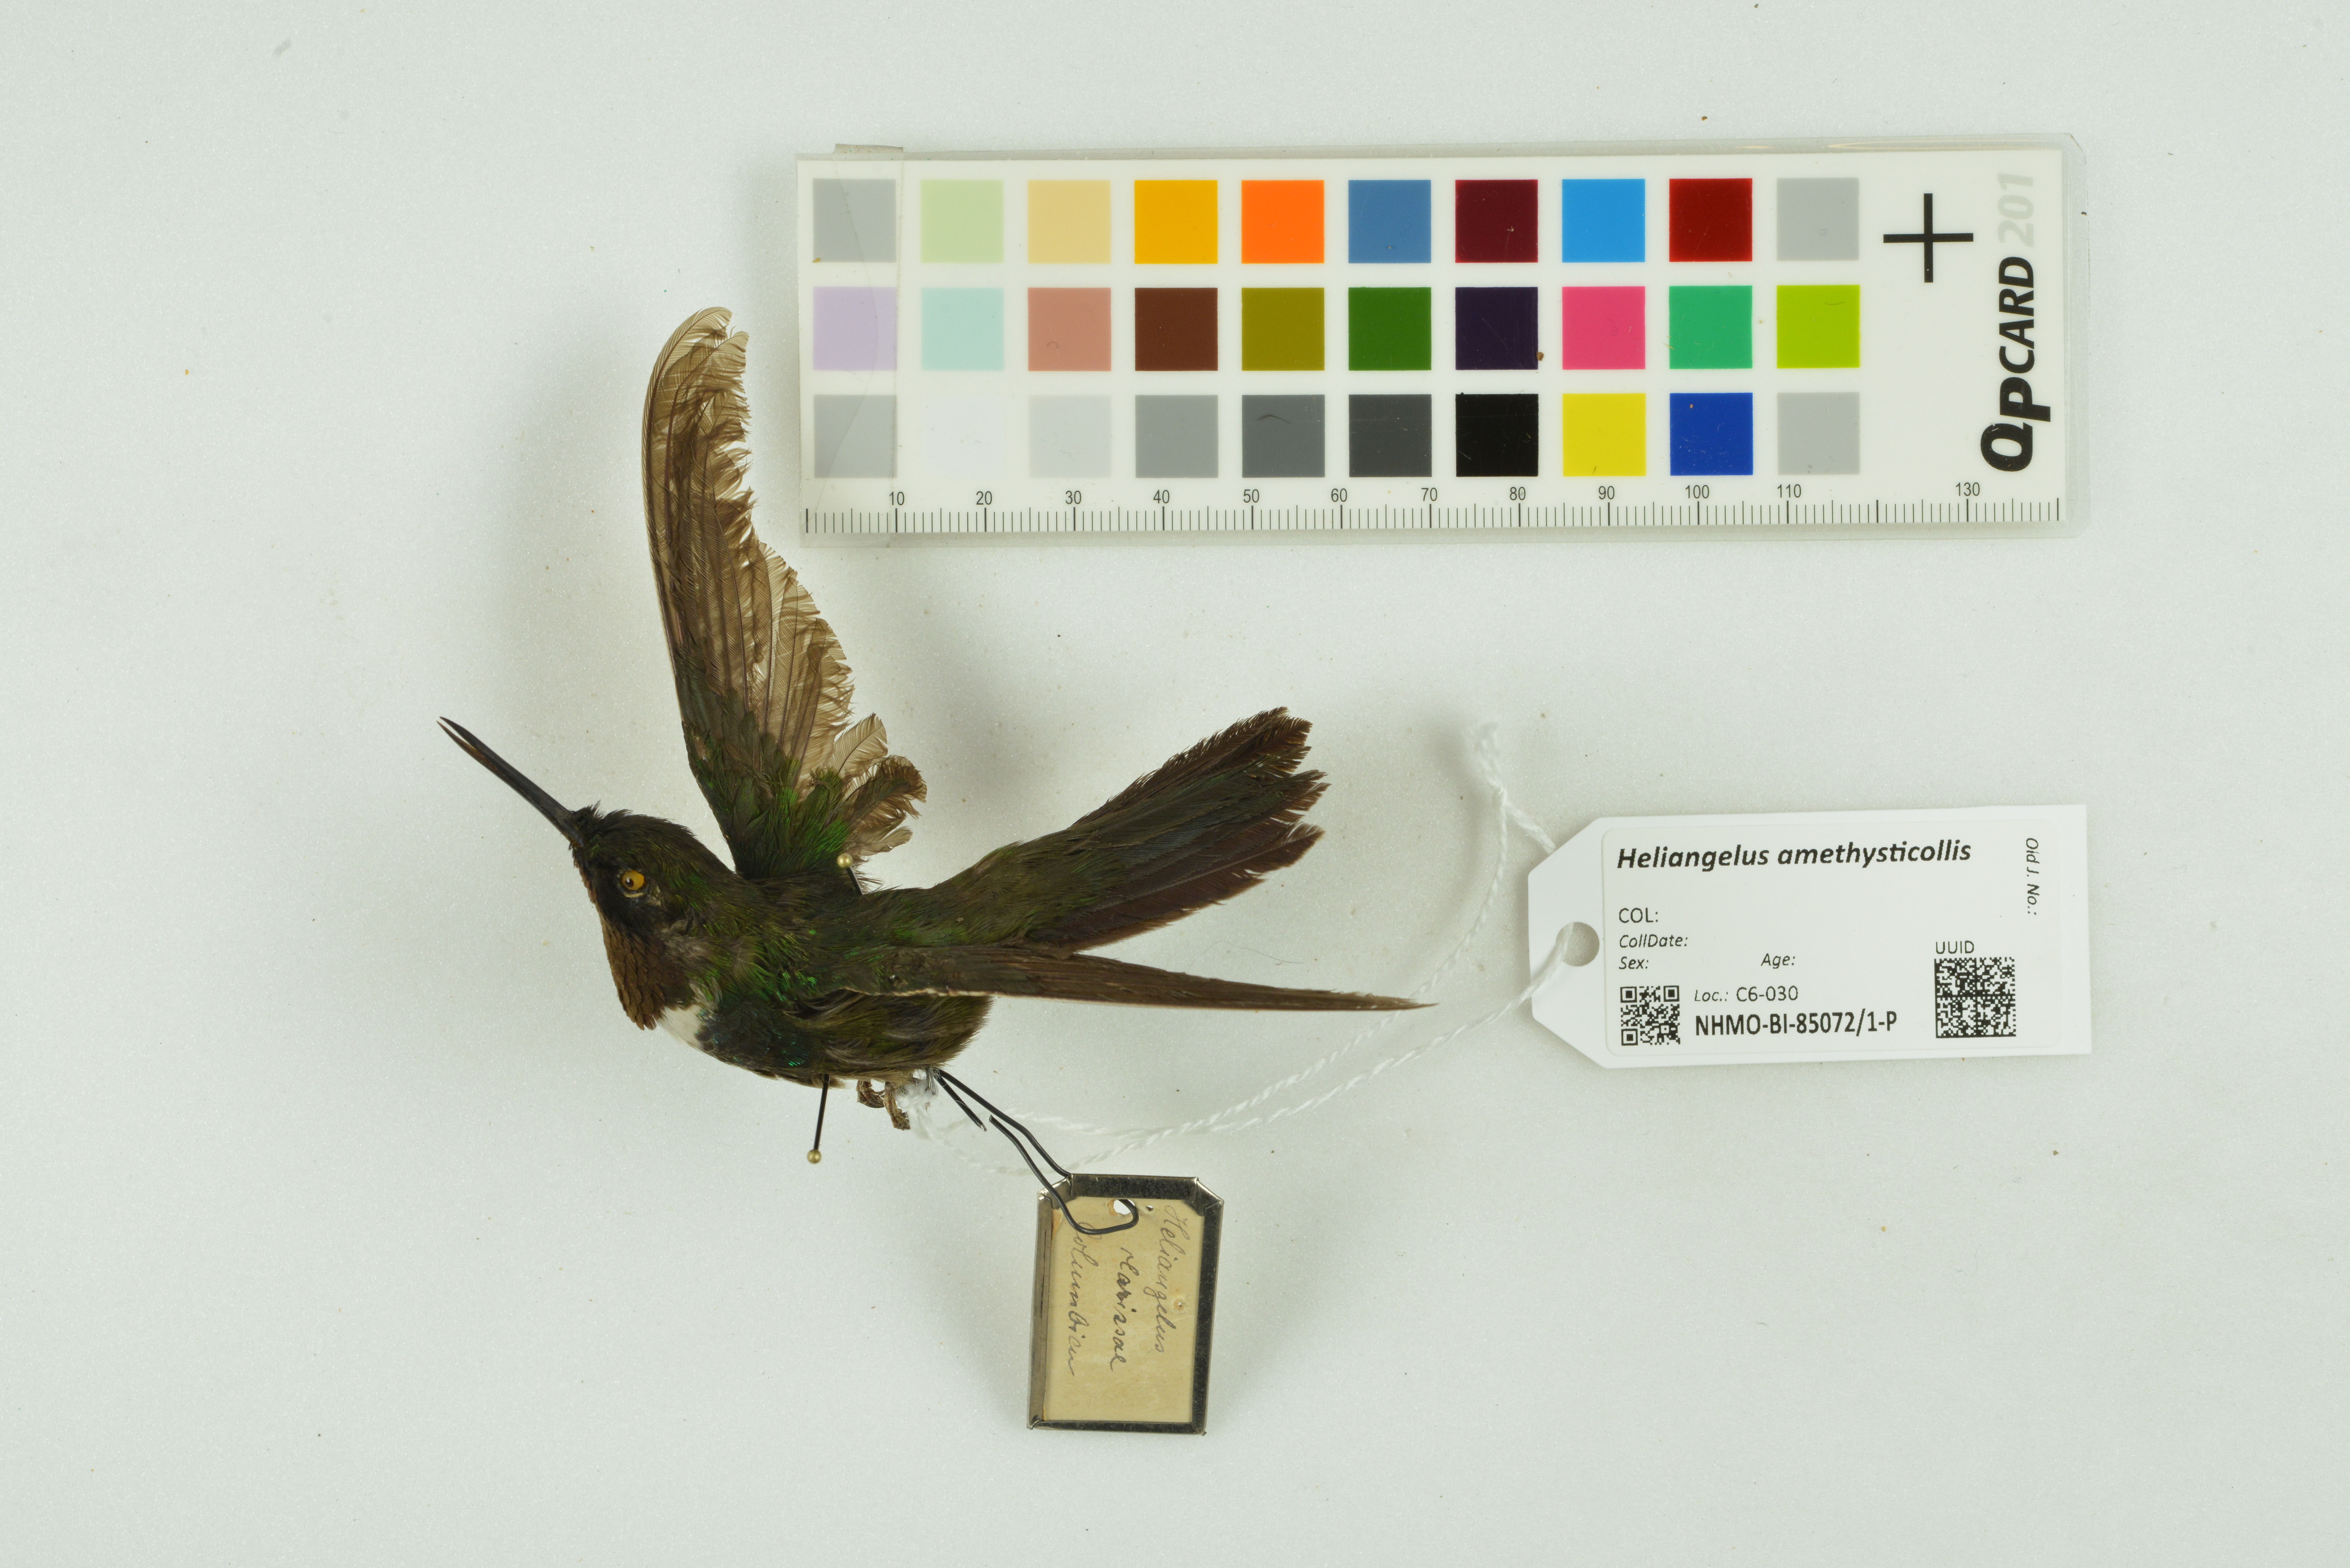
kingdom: Animalia
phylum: Chordata
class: Aves
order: Apodiformes
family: Trochilidae
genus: Heliangelus
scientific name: Heliangelus amethysticollis
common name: Amethyst-throated sunangel
